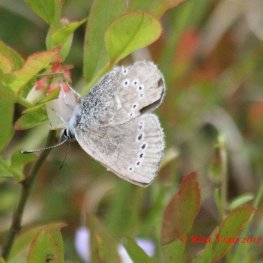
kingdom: Animalia
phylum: Arthropoda
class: Insecta
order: Lepidoptera
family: Lycaenidae
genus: Glaucopsyche
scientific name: Glaucopsyche lygdamus
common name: Silvery Blue
